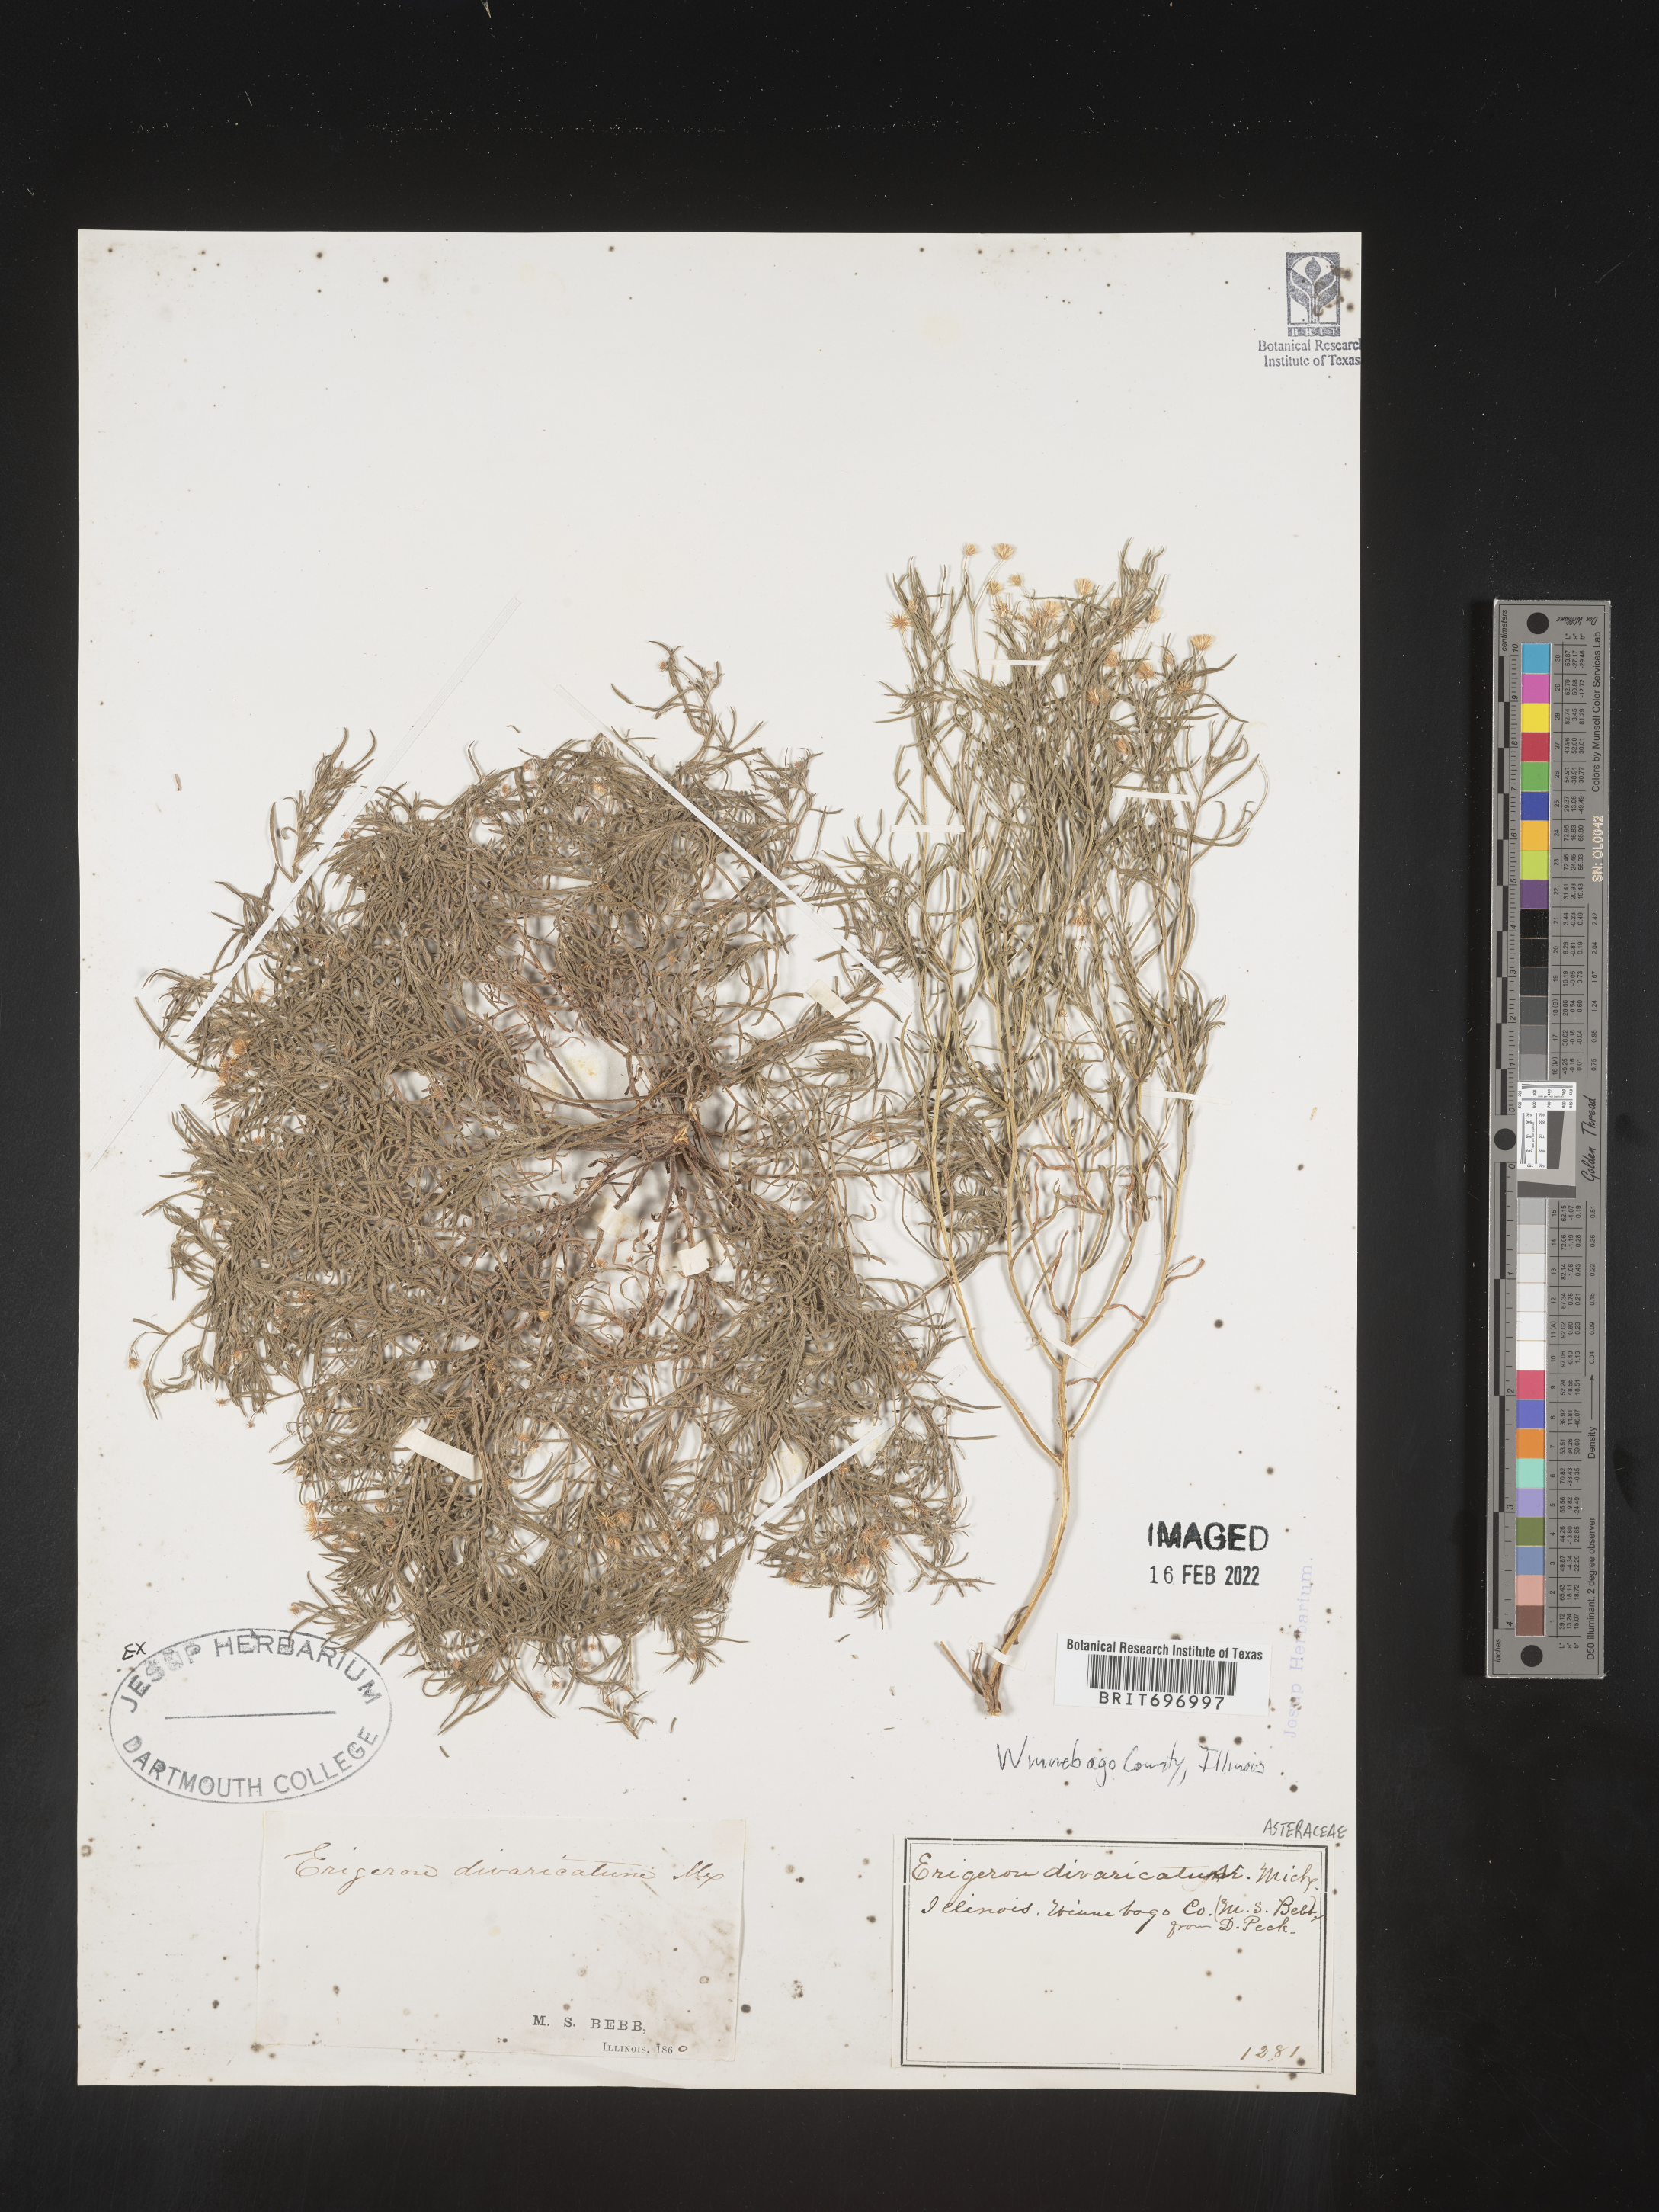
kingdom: Plantae
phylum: Tracheophyta
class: Magnoliopsida
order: Asterales
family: Asteraceae
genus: Erigeron
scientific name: Erigeron divaricatus
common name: Dwarf conyza
